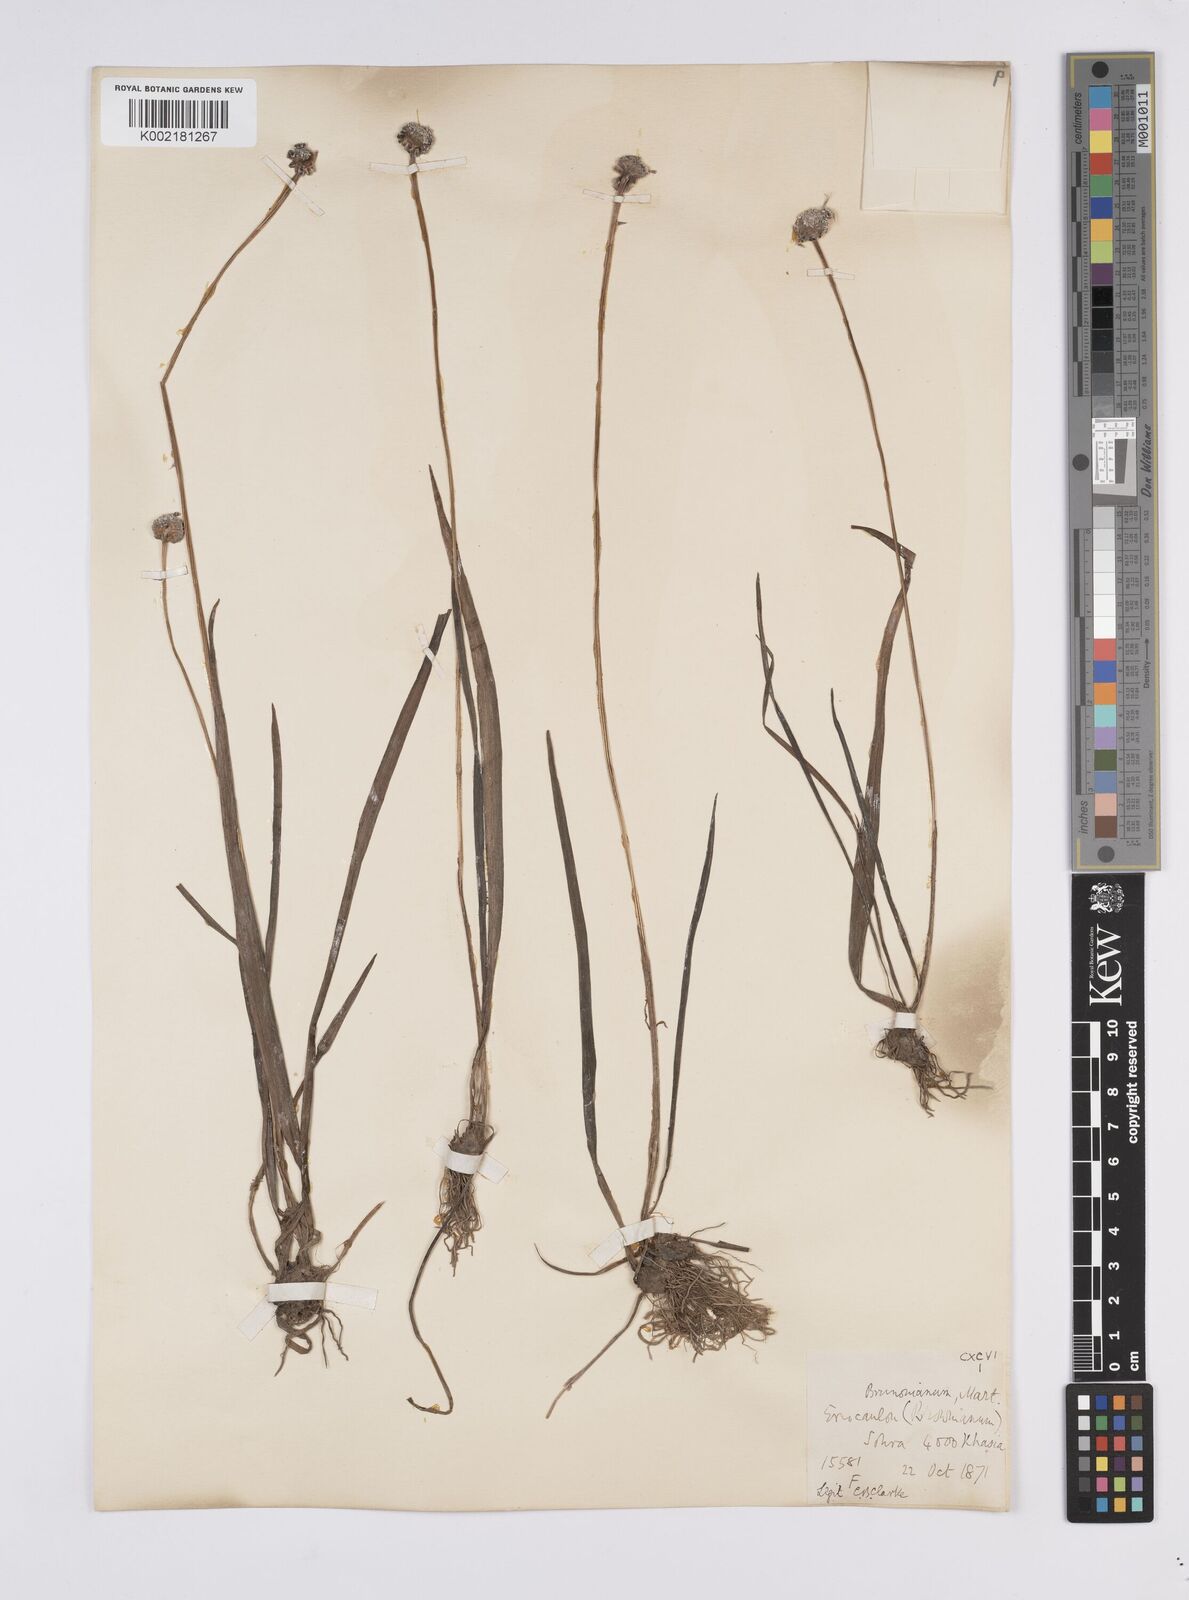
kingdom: Plantae
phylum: Tracheophyta
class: Liliopsida
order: Poales
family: Eriocaulaceae
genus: Eriocaulon
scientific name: Eriocaulon brownianum
